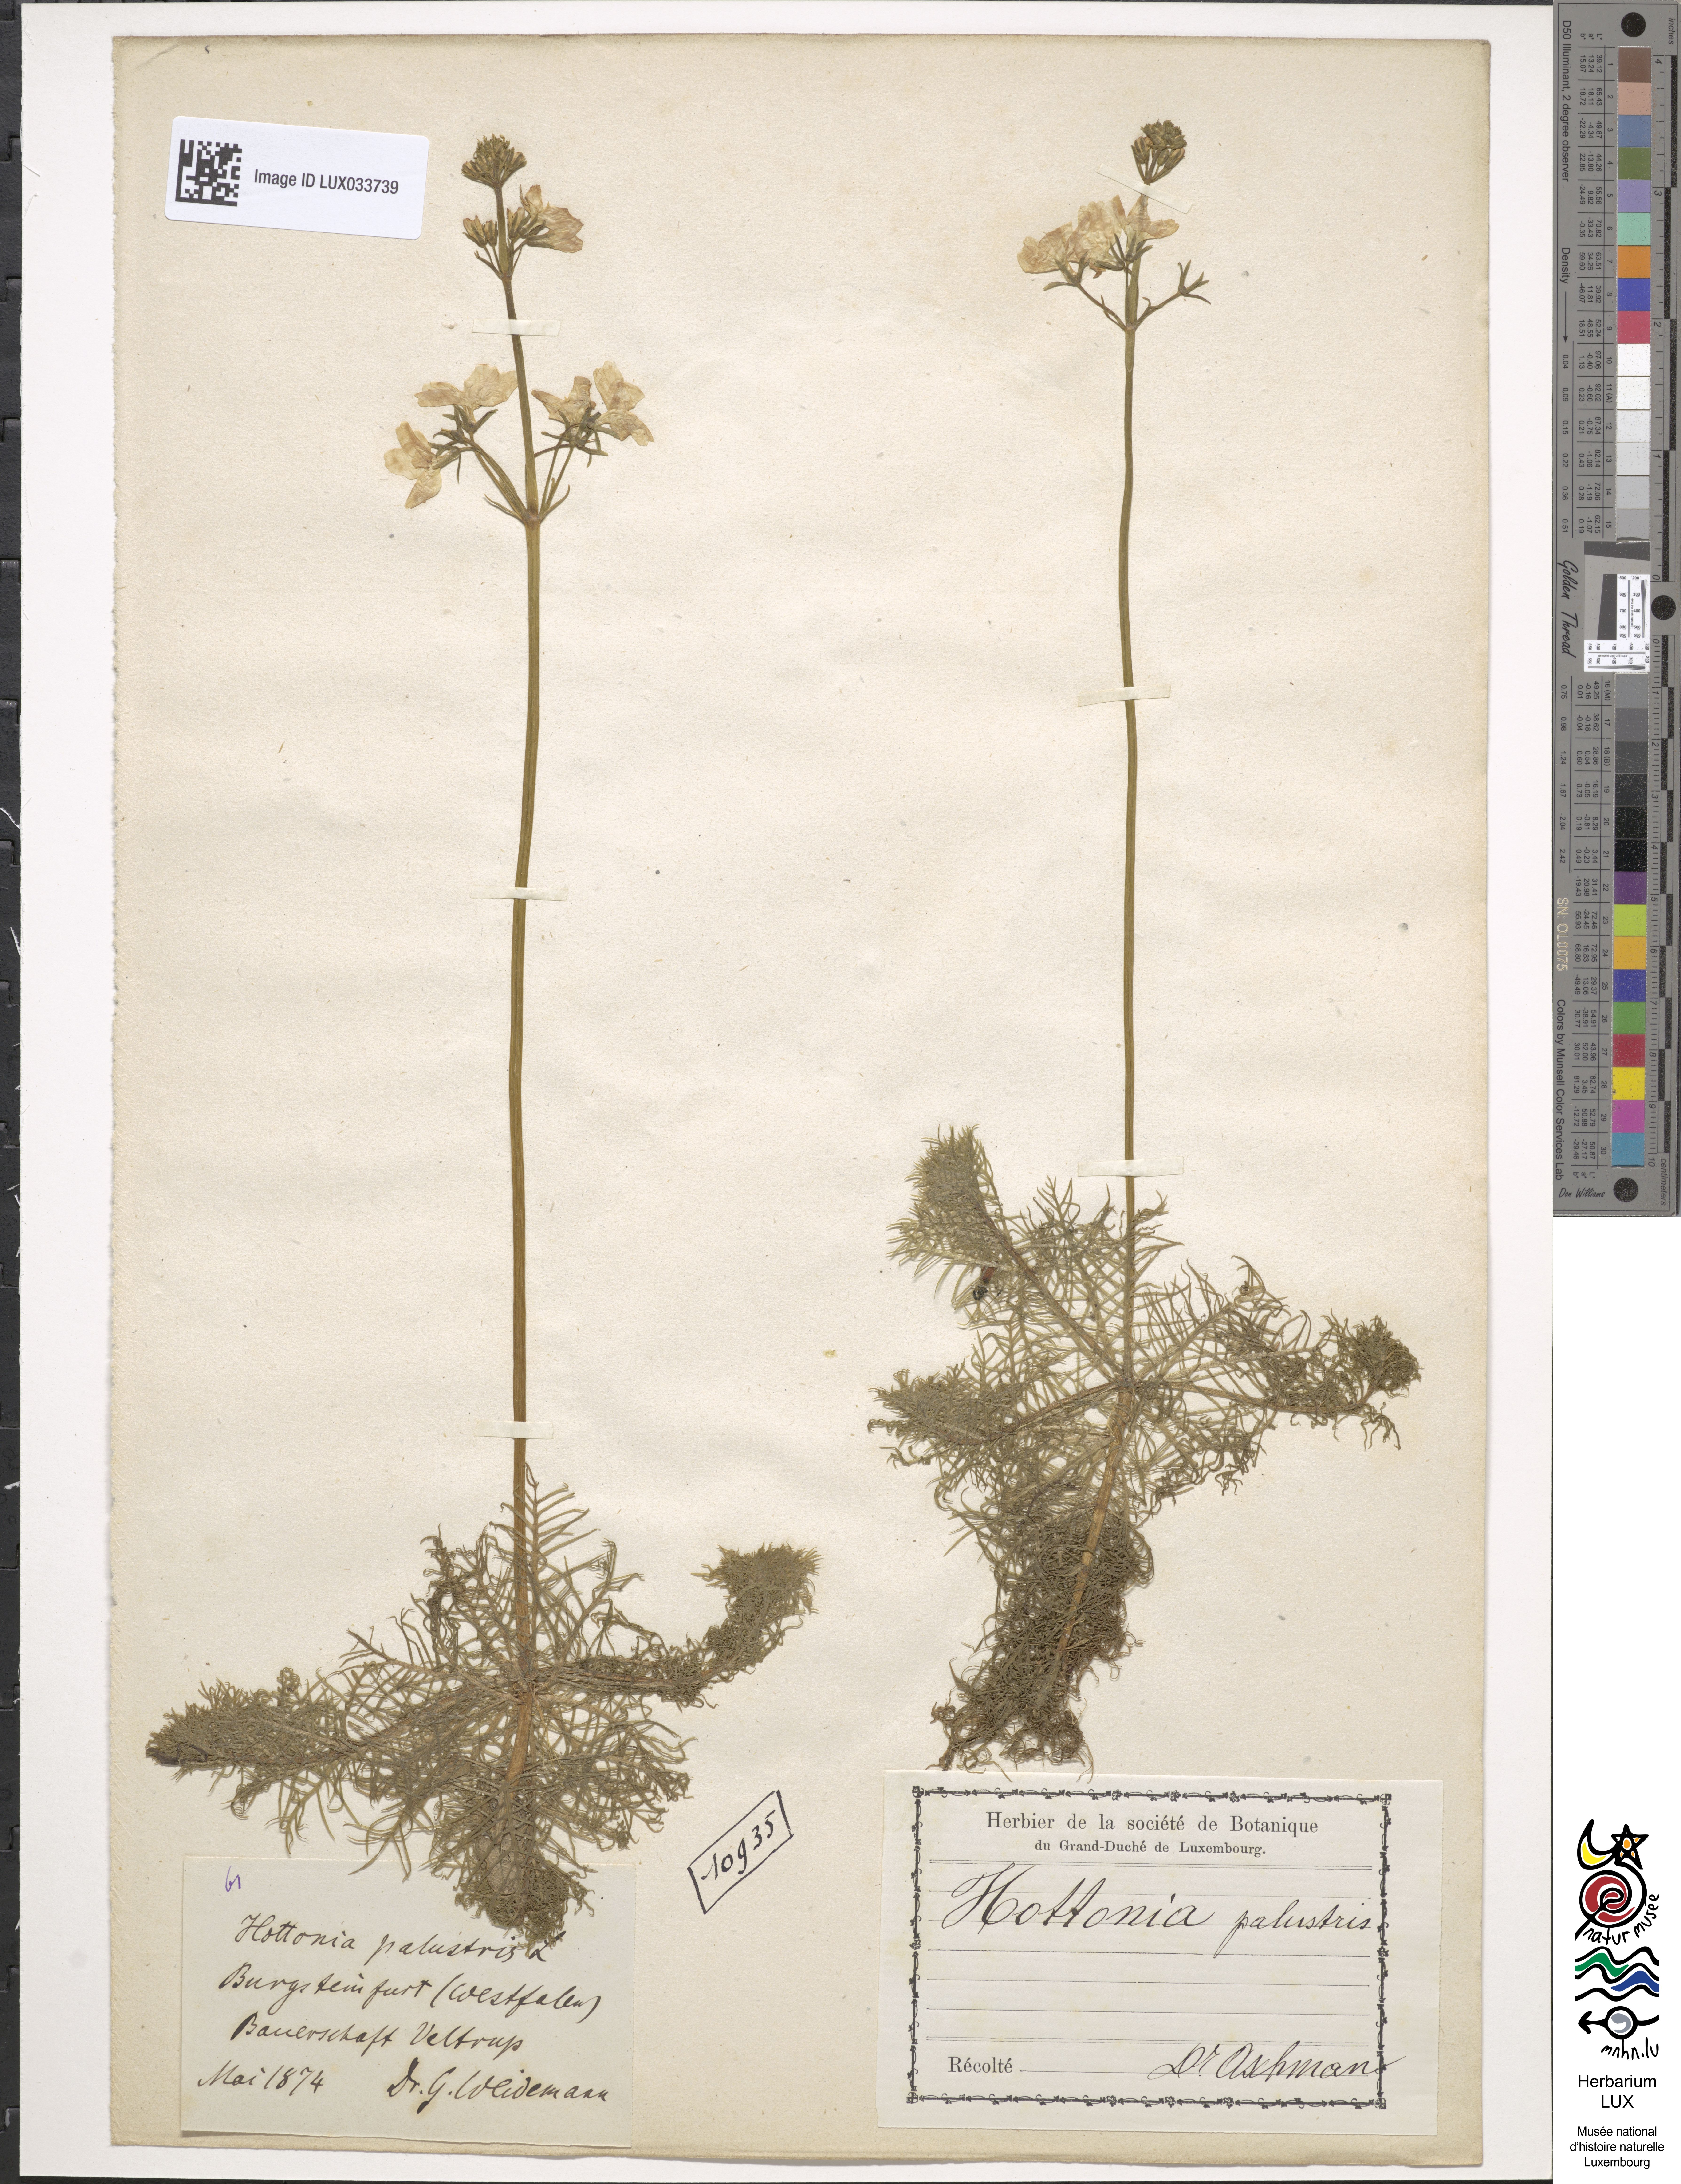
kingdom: Plantae
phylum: Tracheophyta
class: Magnoliopsida
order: Ericales
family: Primulaceae
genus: Hottonia
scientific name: Hottonia palustris
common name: Water-violet
